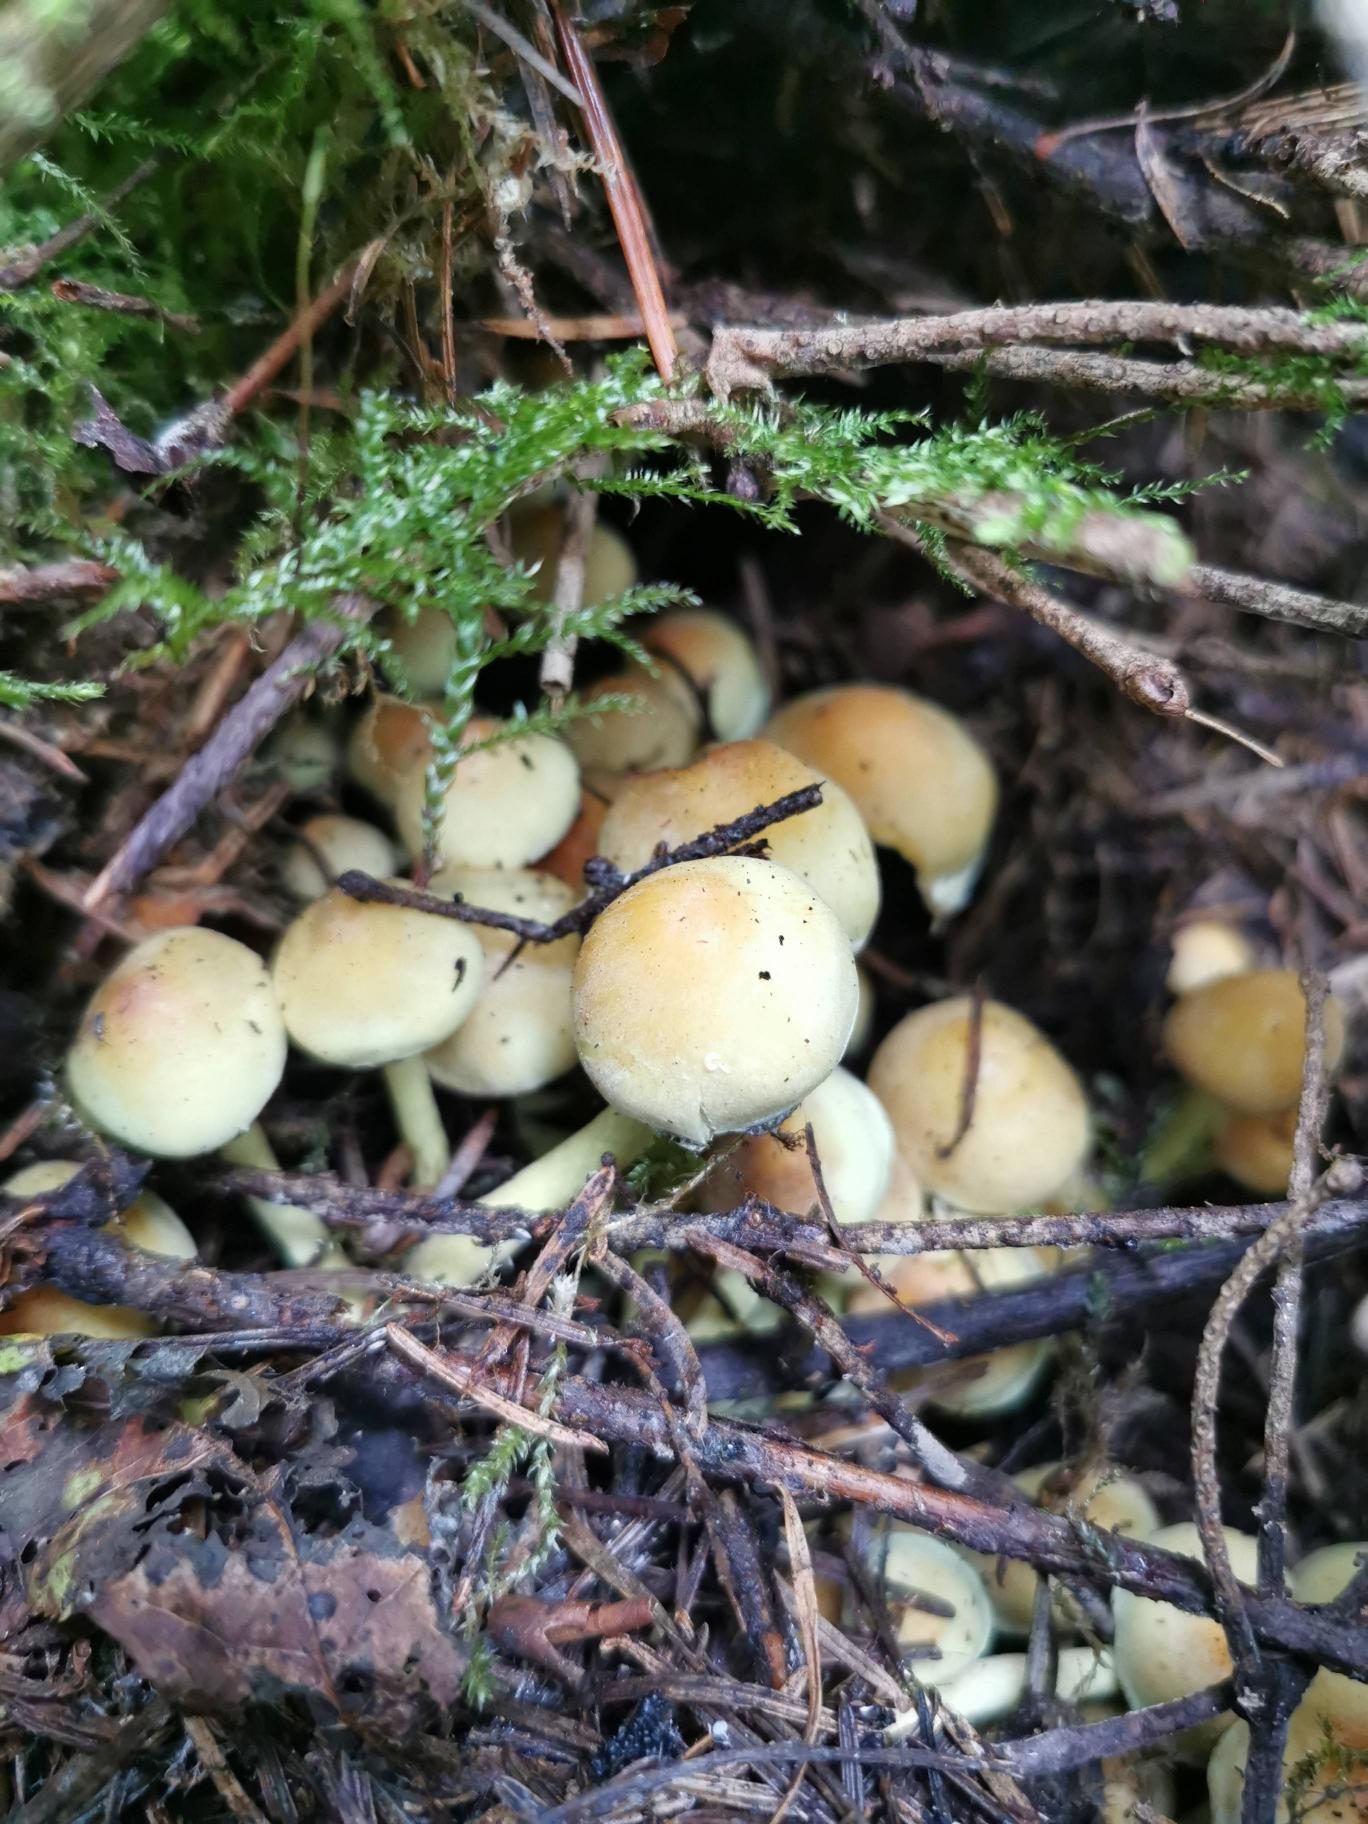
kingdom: Fungi
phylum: Basidiomycota
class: Agaricomycetes
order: Agaricales
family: Strophariaceae
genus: Hypholoma
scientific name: Hypholoma fasciculare
